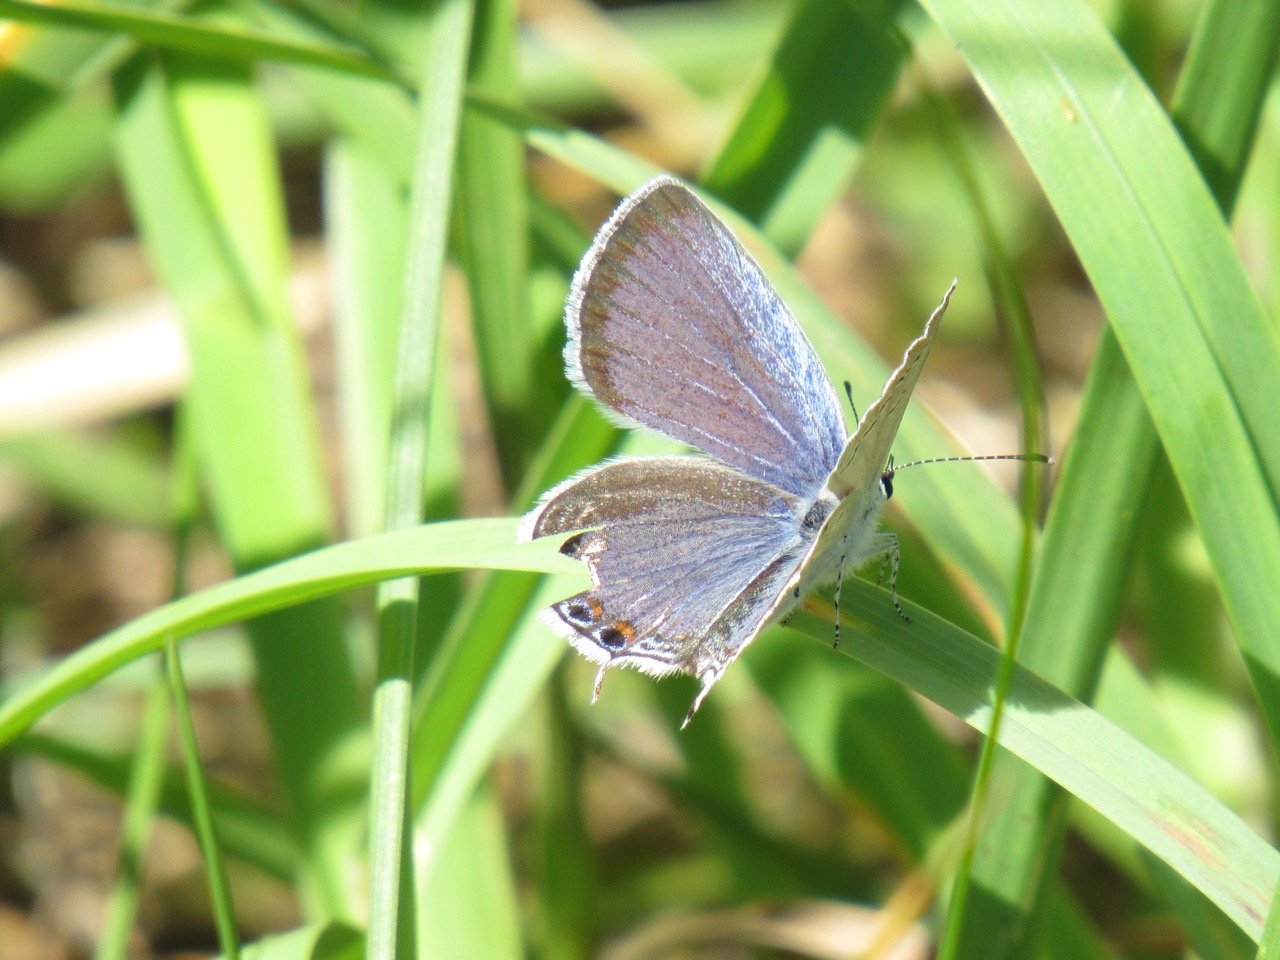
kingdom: Animalia
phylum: Arthropoda
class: Insecta
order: Lepidoptera
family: Lycaenidae
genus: Elkalyce
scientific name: Elkalyce comyntas
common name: Eastern Tailed-Blue
